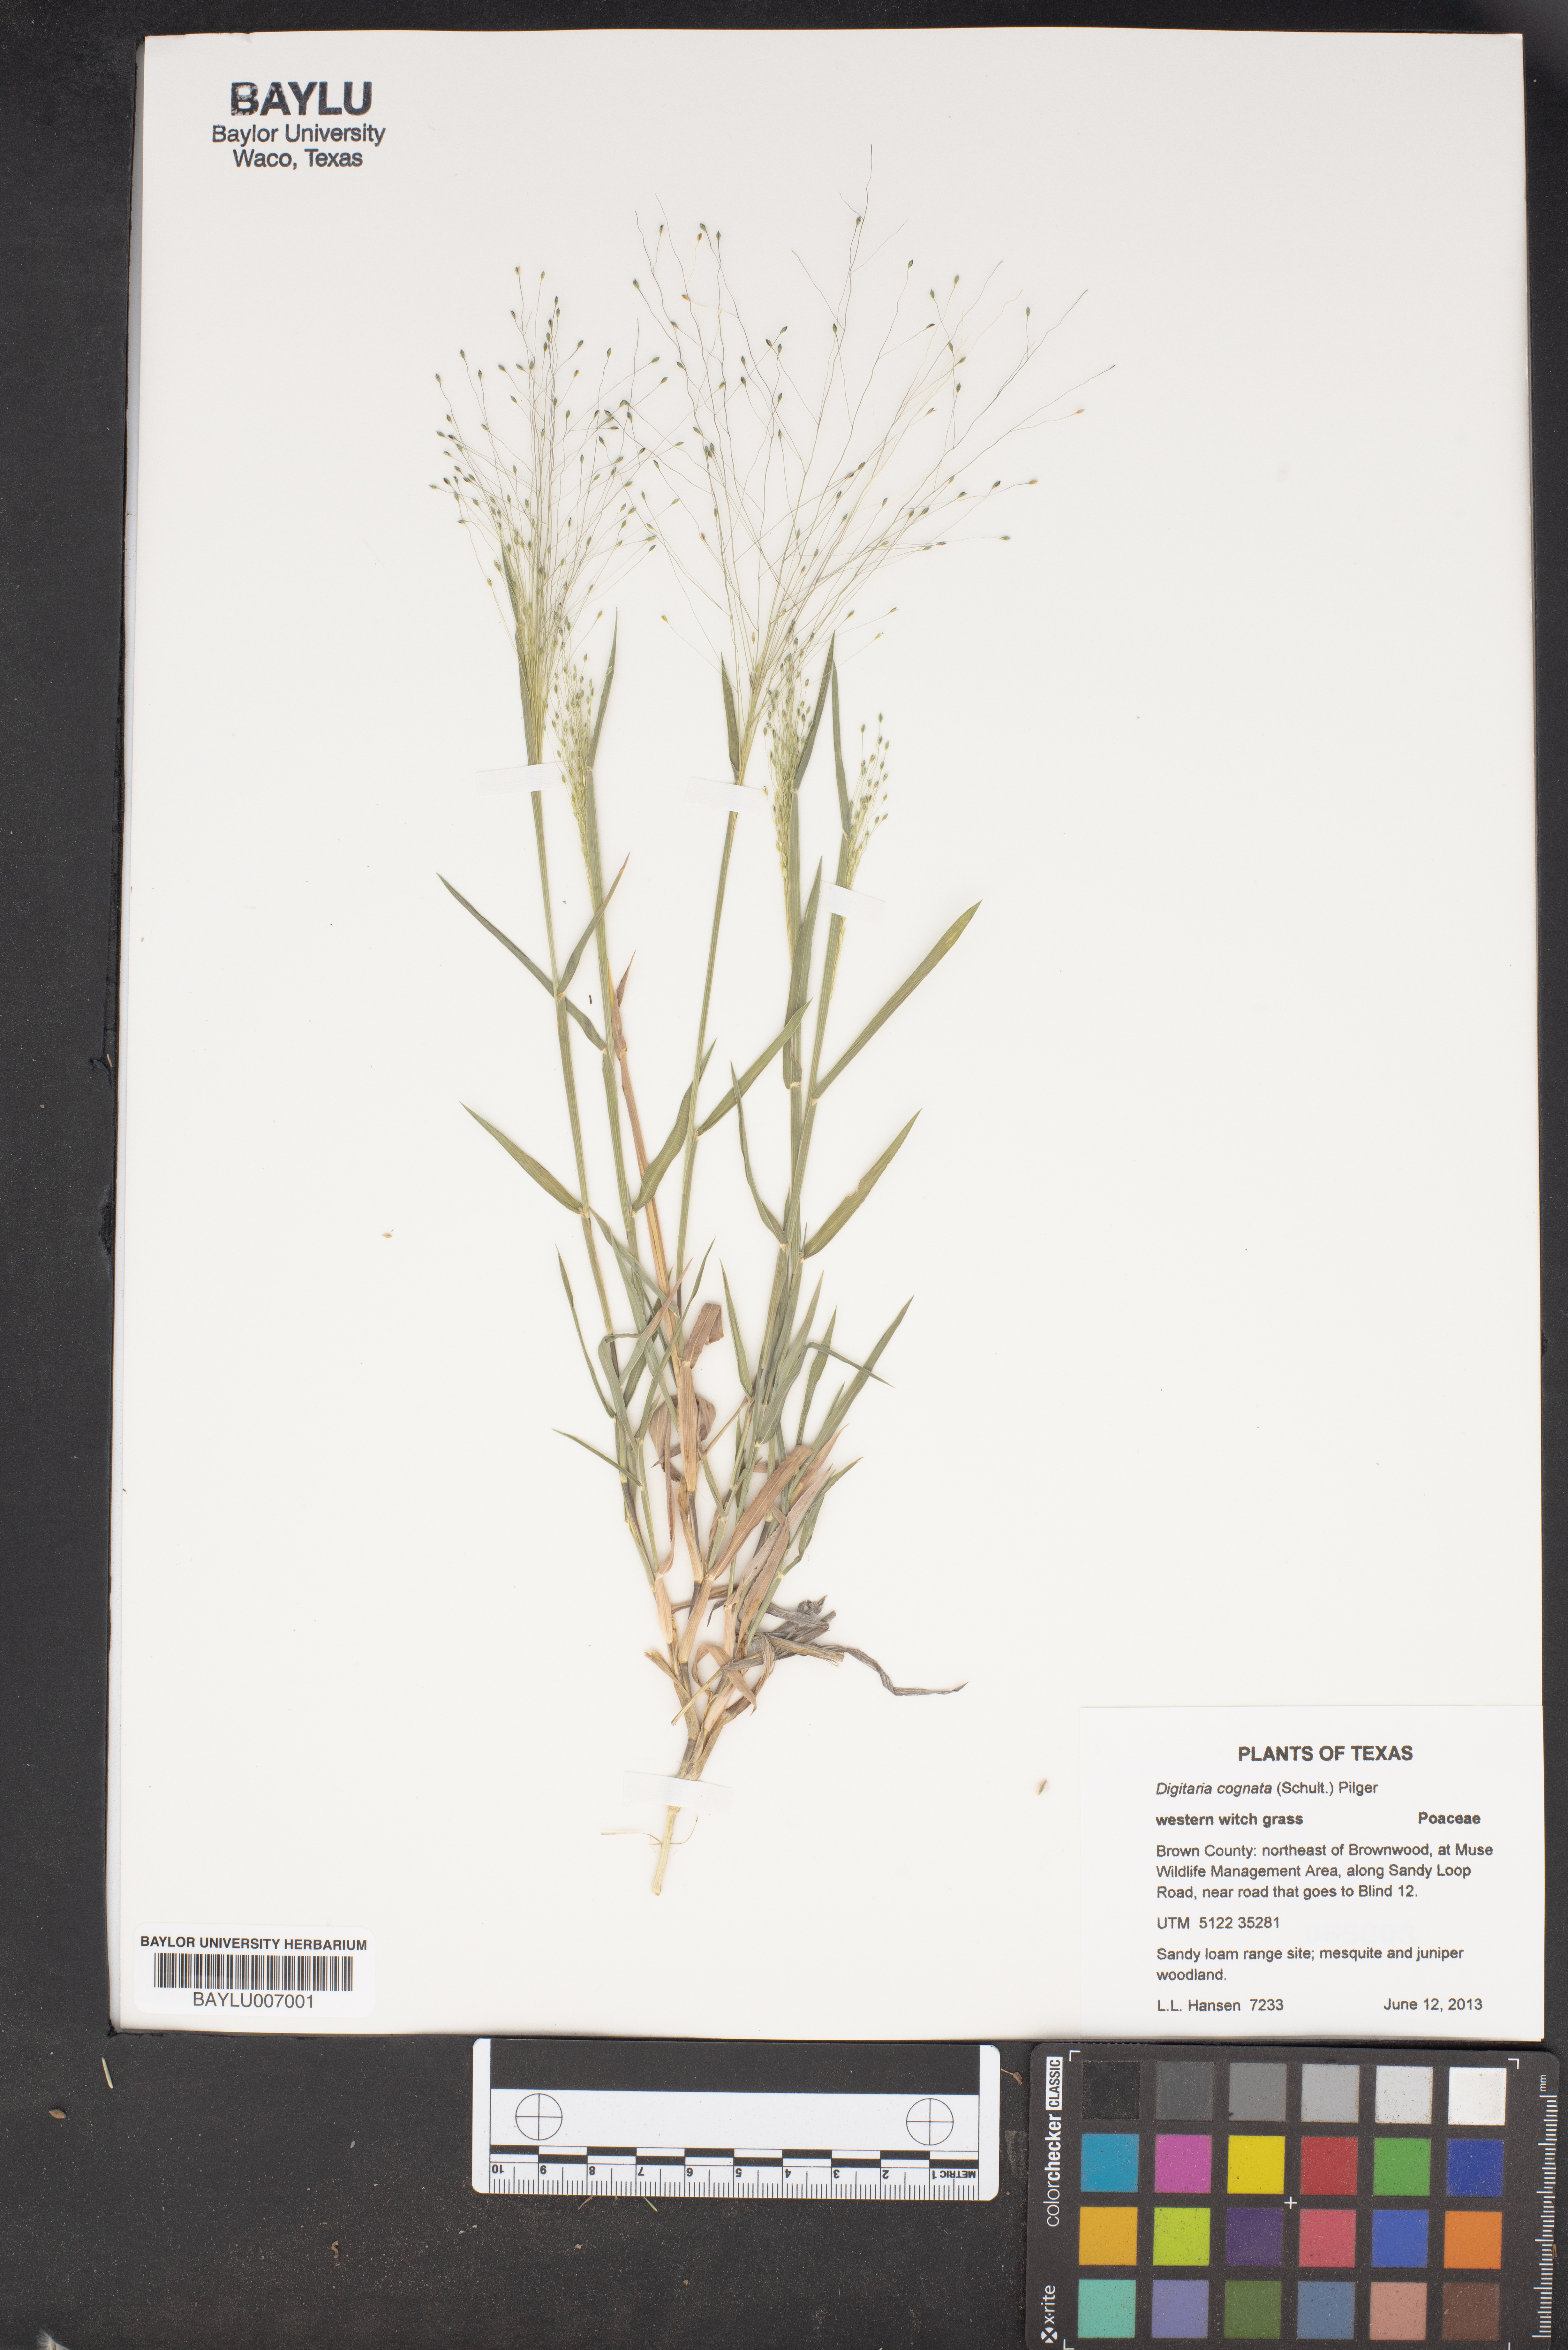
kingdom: Plantae
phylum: Tracheophyta
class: Liliopsida
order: Poales
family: Poaceae
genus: Digitaria
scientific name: Digitaria cognata
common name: Fall witchgrass
